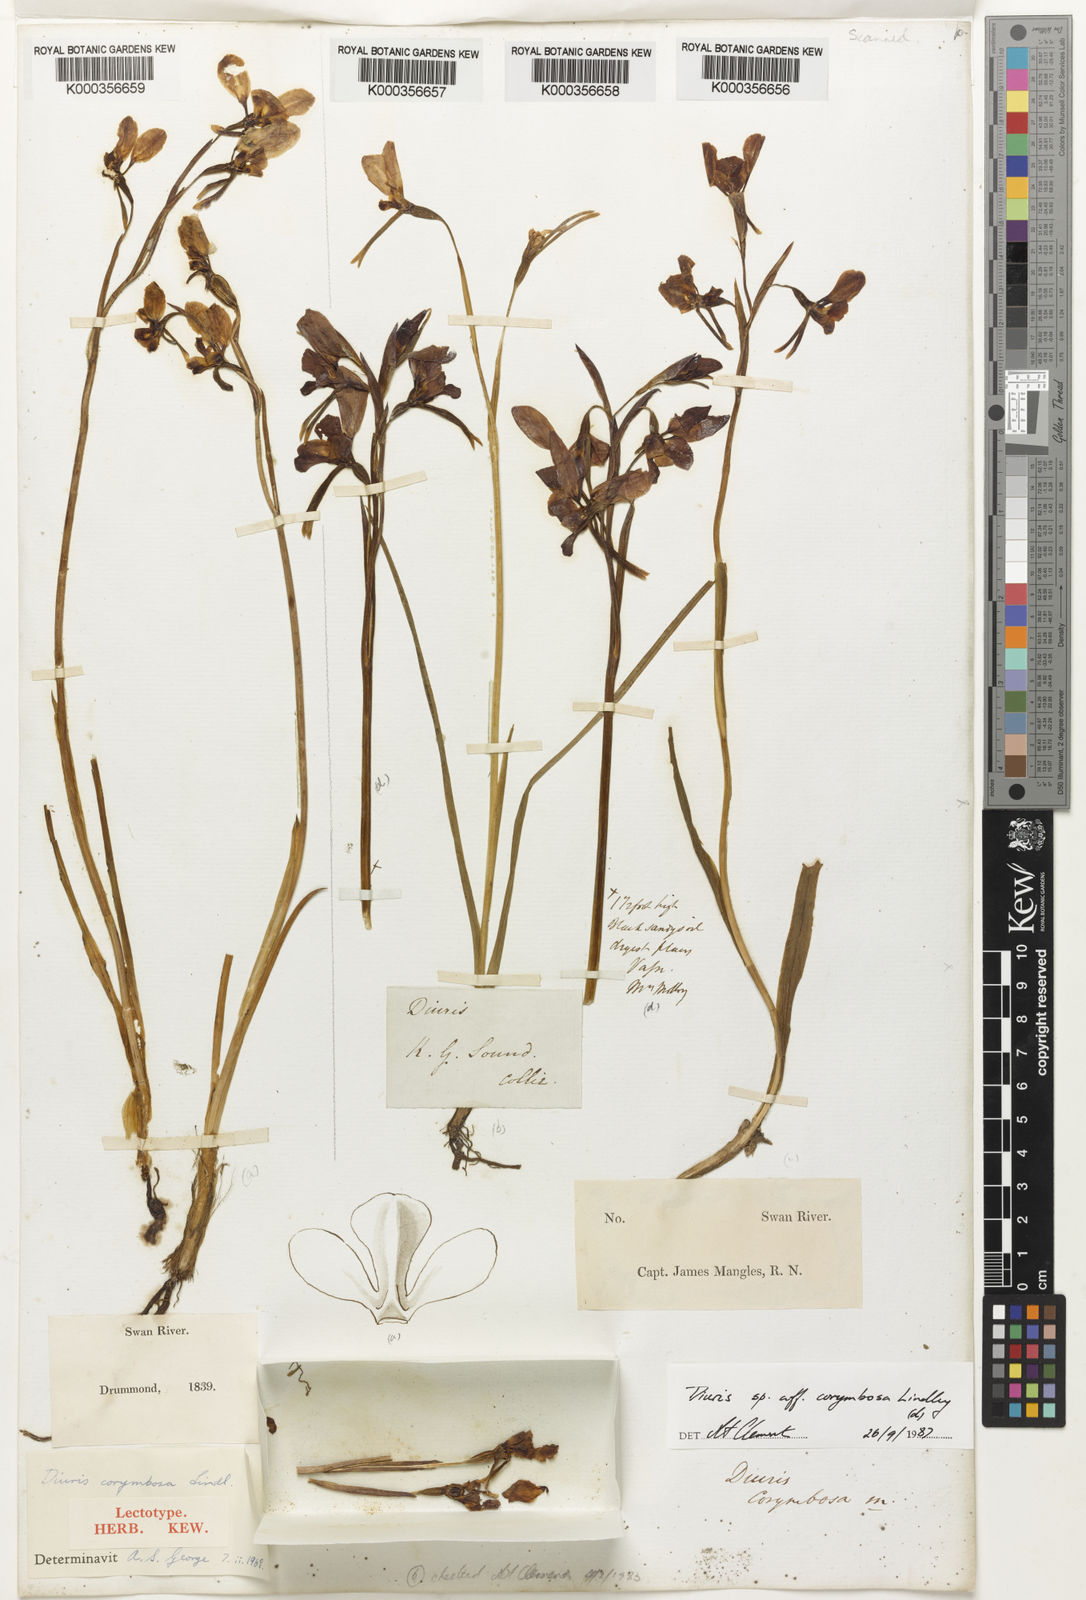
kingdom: Plantae
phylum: Tracheophyta
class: Liliopsida
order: Asparagales
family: Orchidaceae
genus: Diuris
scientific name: Diuris corymbosa
